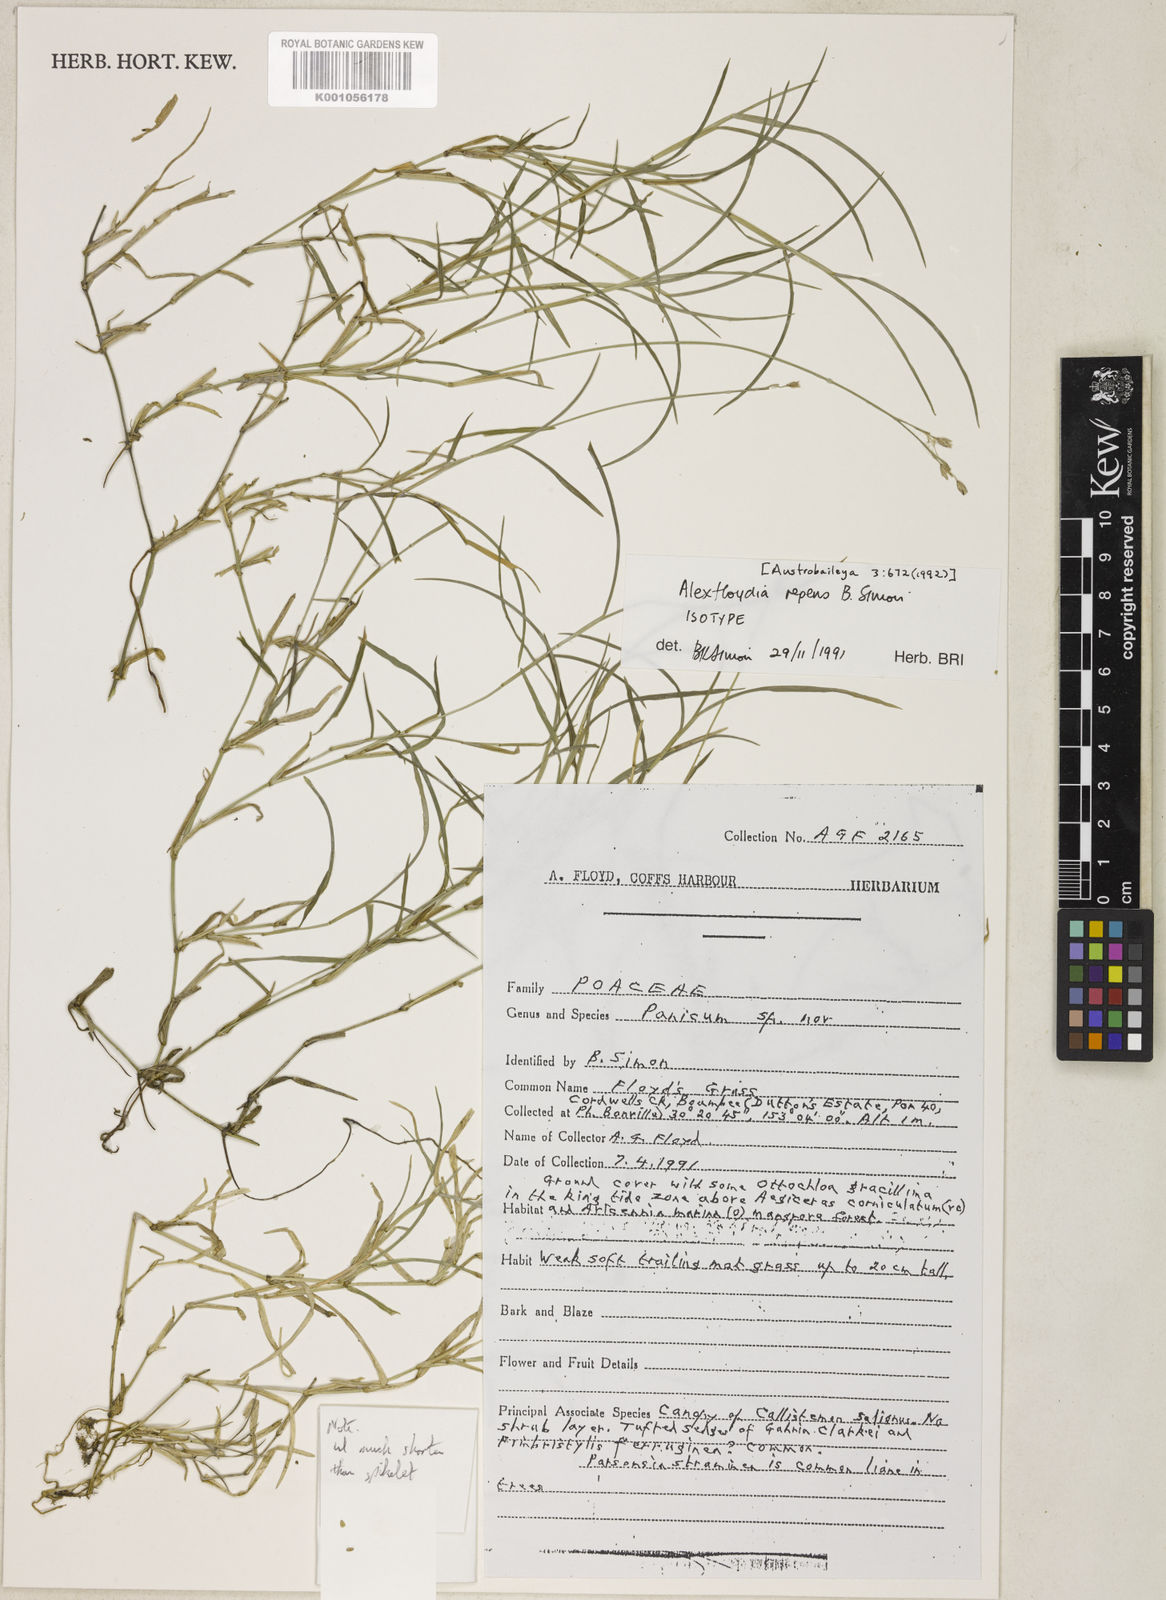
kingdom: Plantae
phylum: Tracheophyta
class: Liliopsida
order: Poales
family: Poaceae
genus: Alexfloydia
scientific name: Alexfloydia repens
